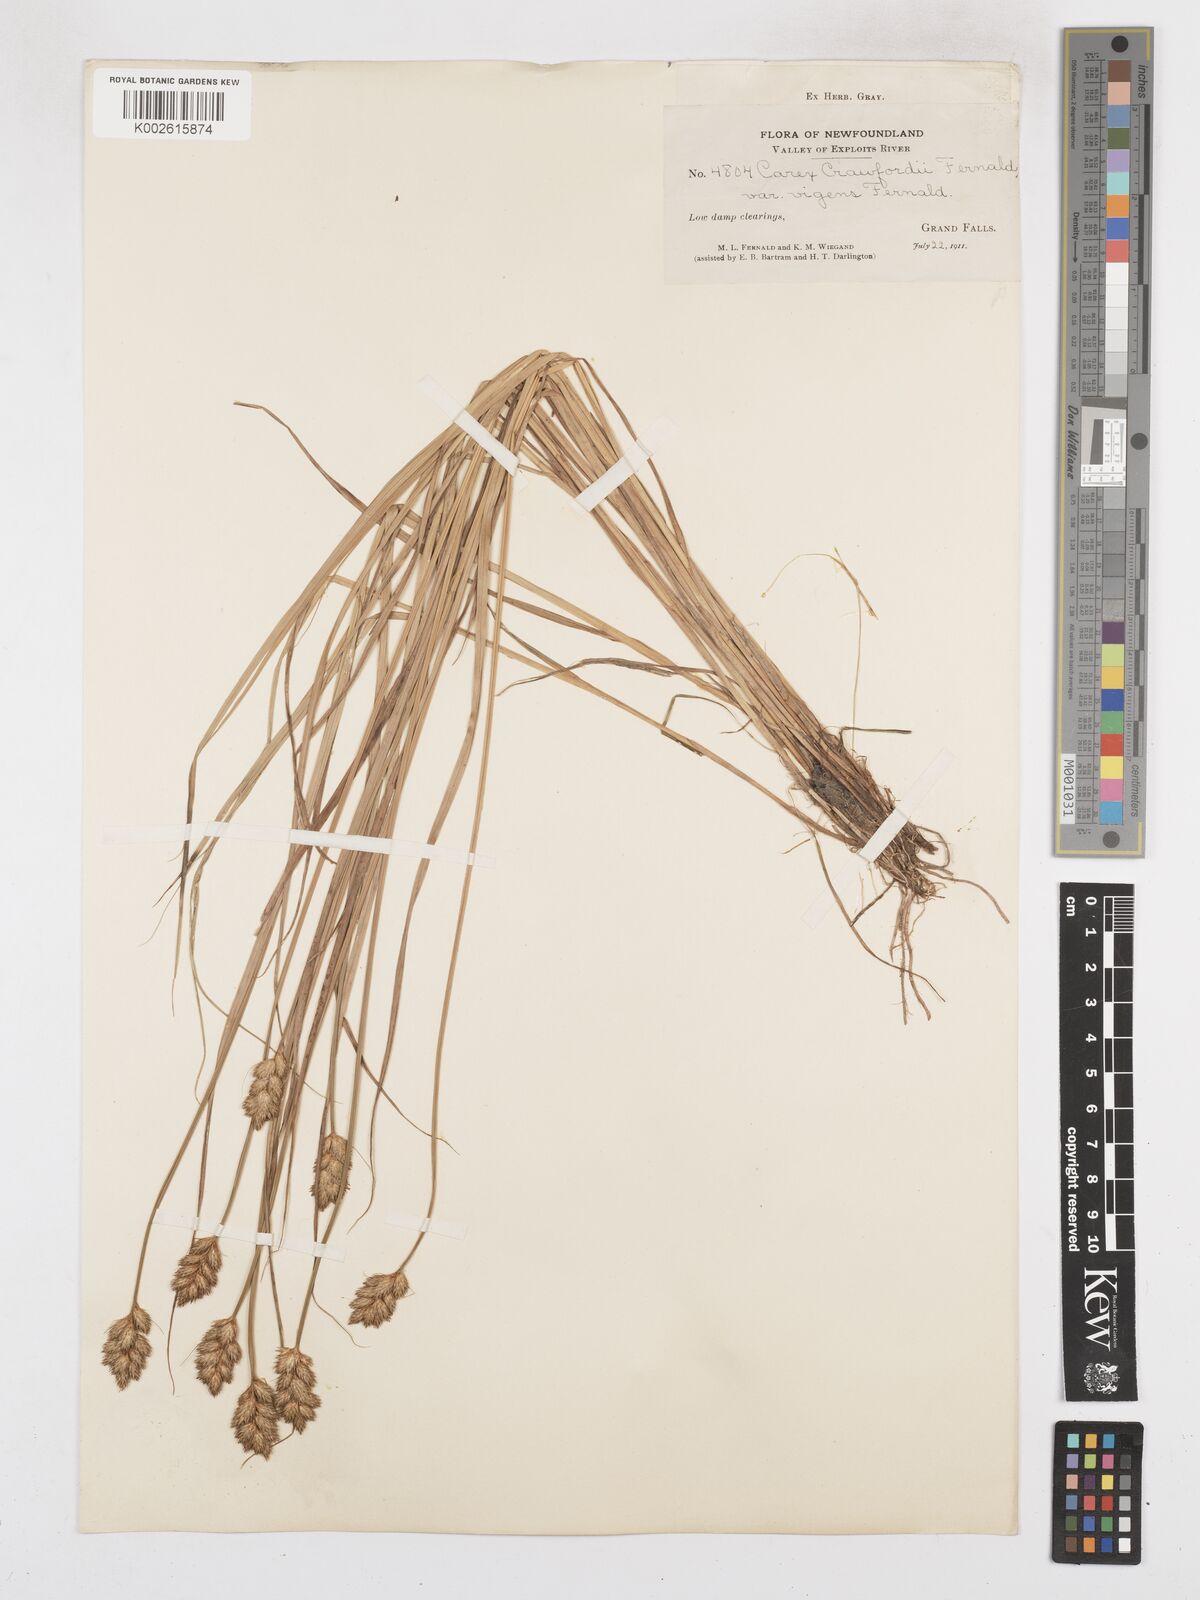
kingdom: Plantae
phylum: Tracheophyta
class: Liliopsida
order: Poales
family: Cyperaceae
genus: Carex
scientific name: Carex crawfordii
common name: Crawford's sedge
